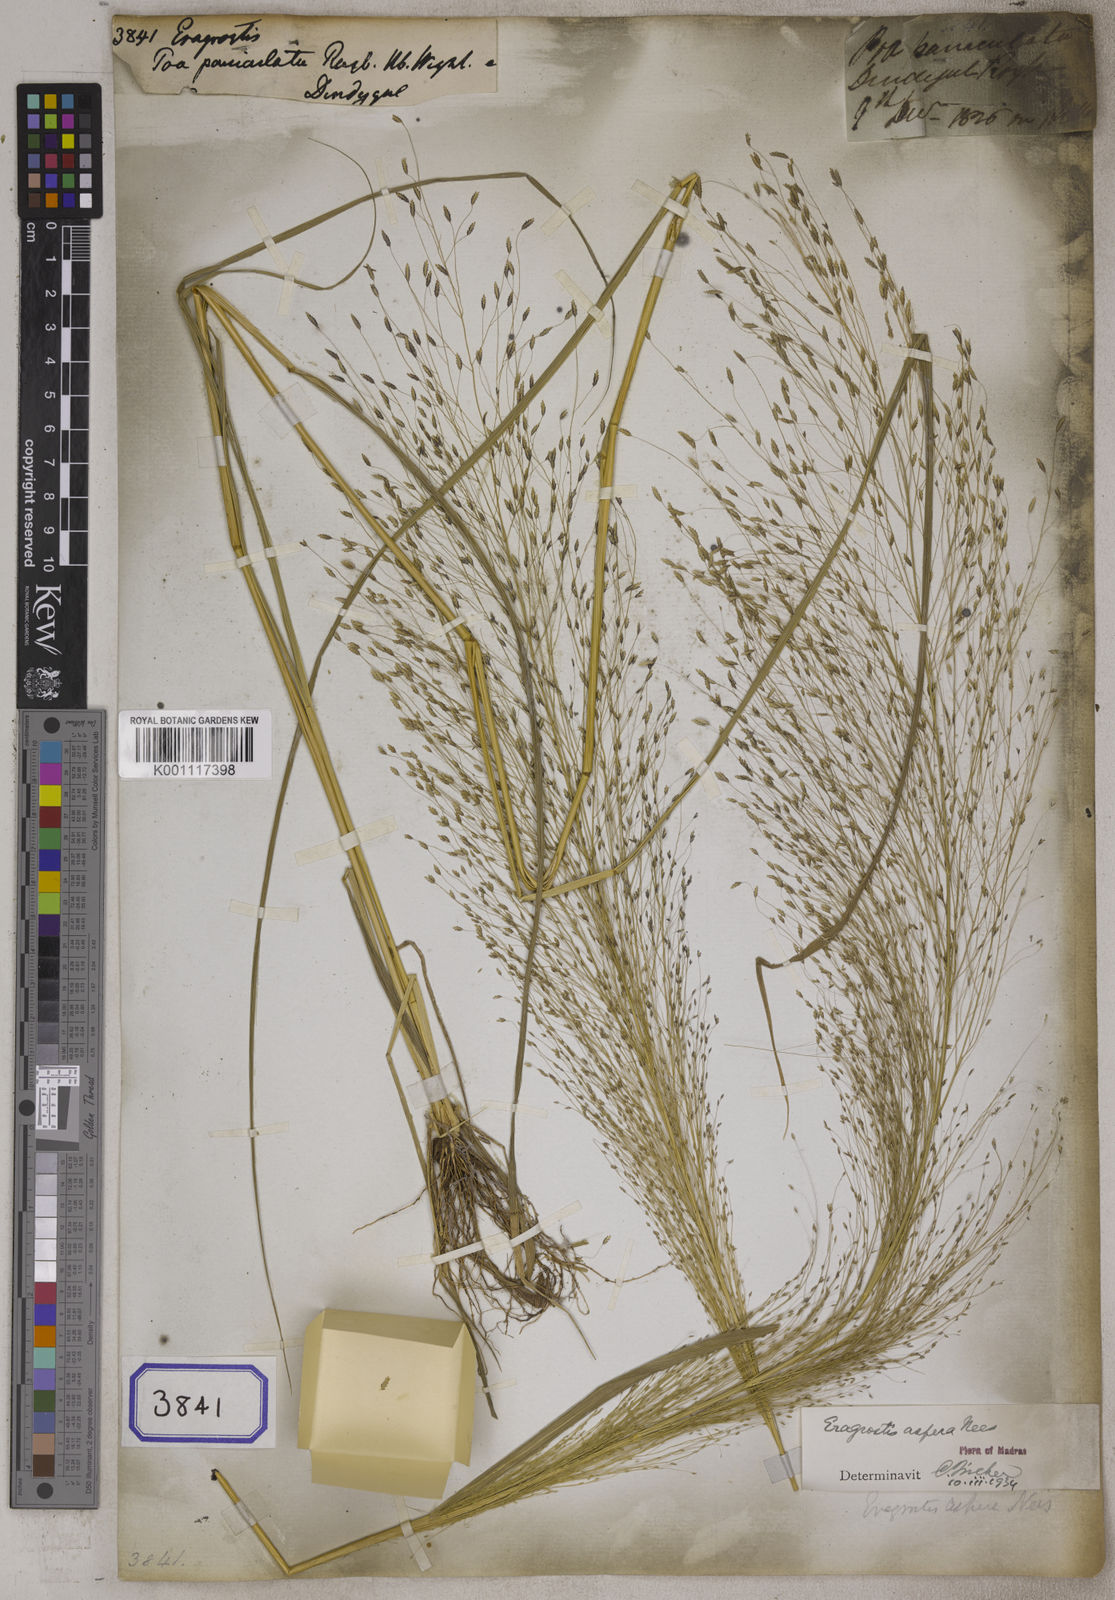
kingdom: Plantae
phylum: Tracheophyta
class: Liliopsida
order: Poales
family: Poaceae
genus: Eragrostis
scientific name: Eragrostis
